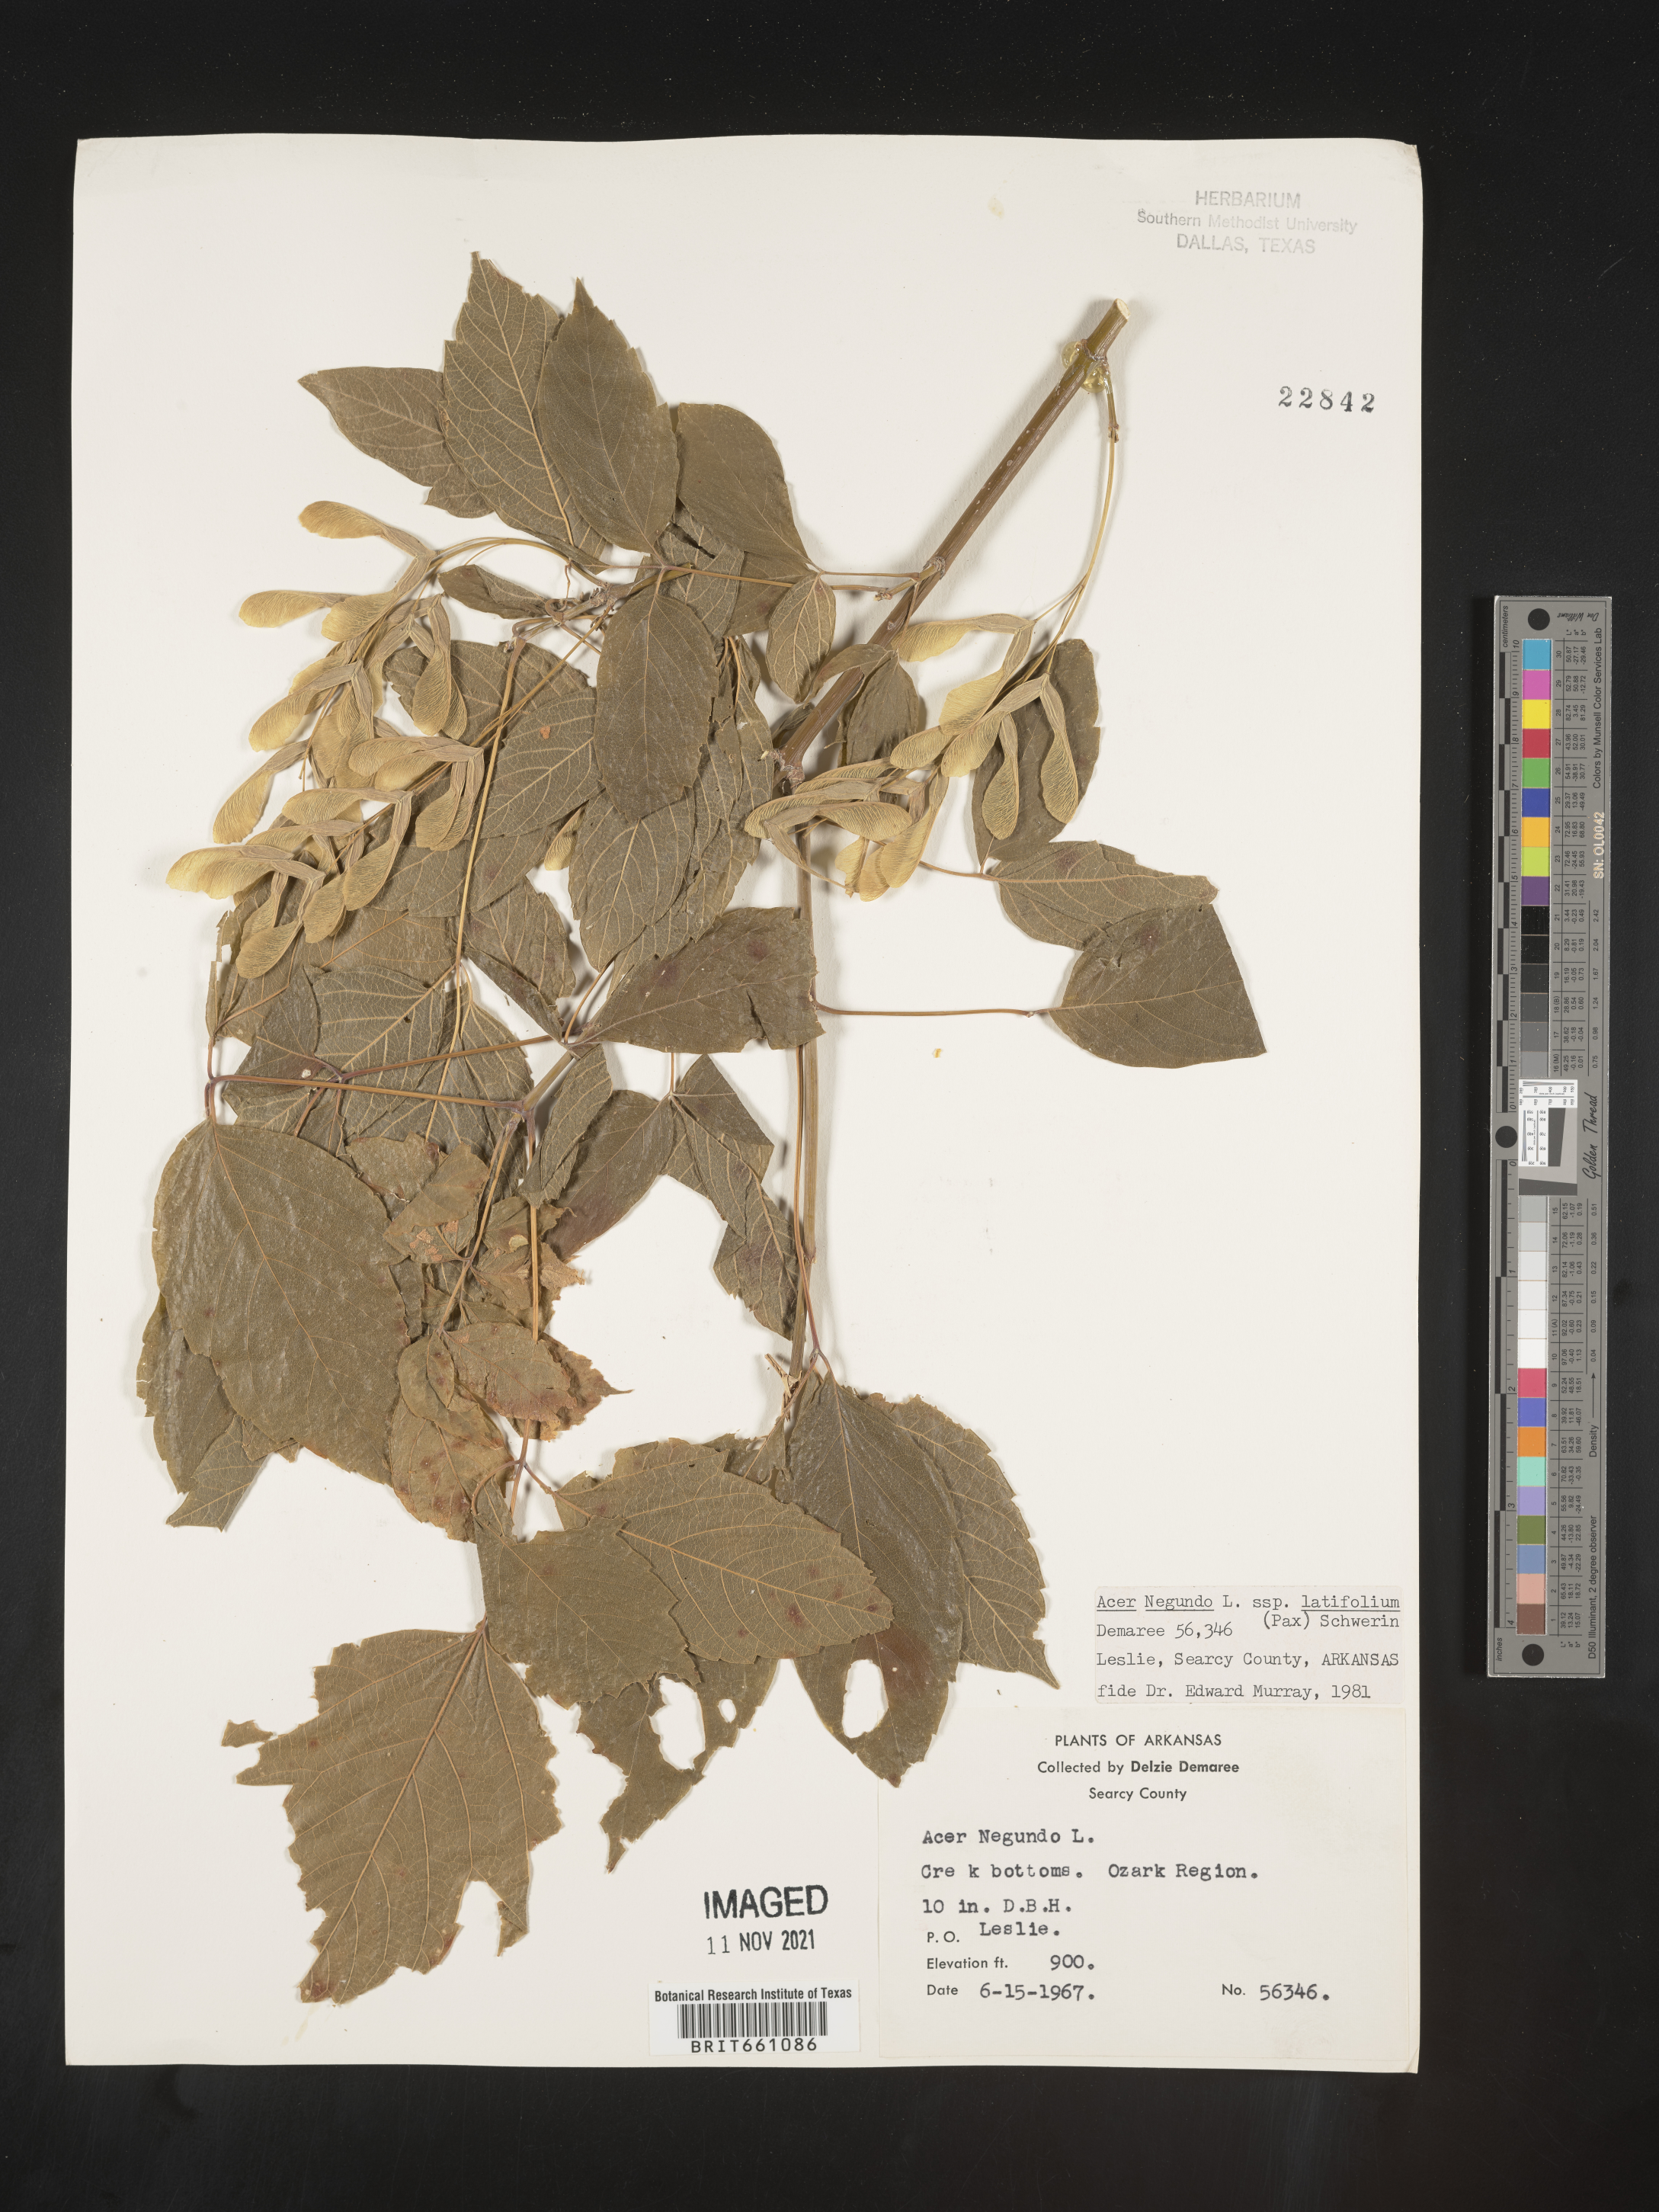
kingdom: Plantae
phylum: Tracheophyta
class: Magnoliopsida
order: Sapindales
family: Sapindaceae
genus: Acer
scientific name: Acer negundo
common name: Ashleaf maple
